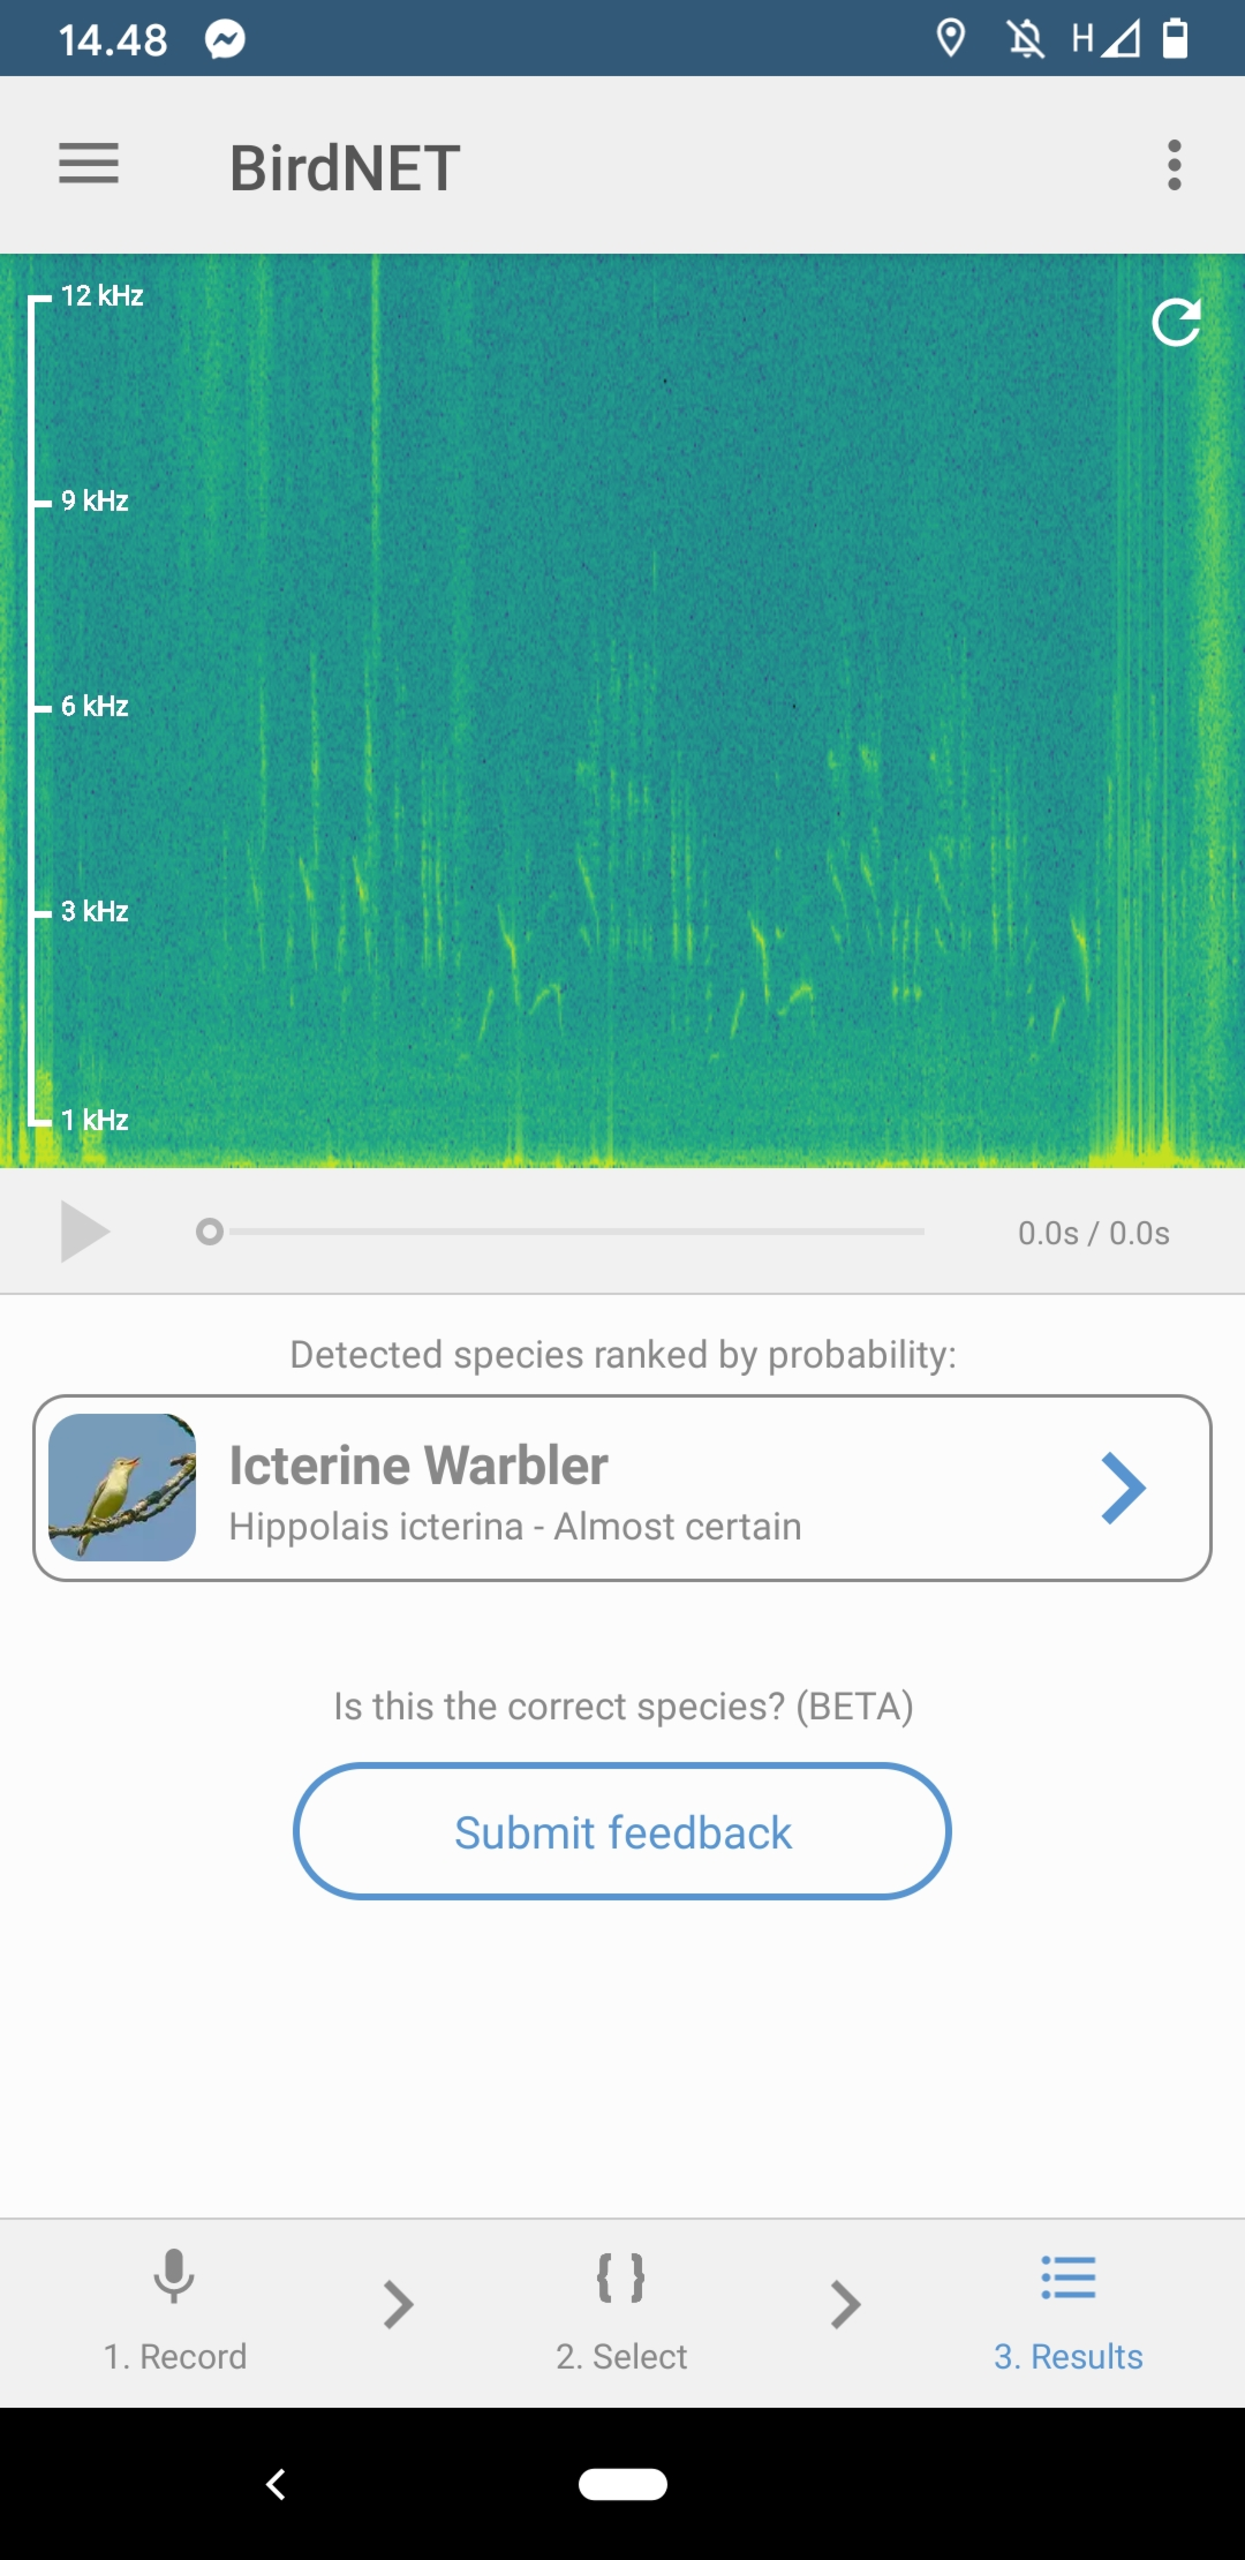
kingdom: Animalia
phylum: Chordata
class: Aves
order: Passeriformes
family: Acrocephalidae
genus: Hippolais
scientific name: Hippolais icterina
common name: Gulbug
